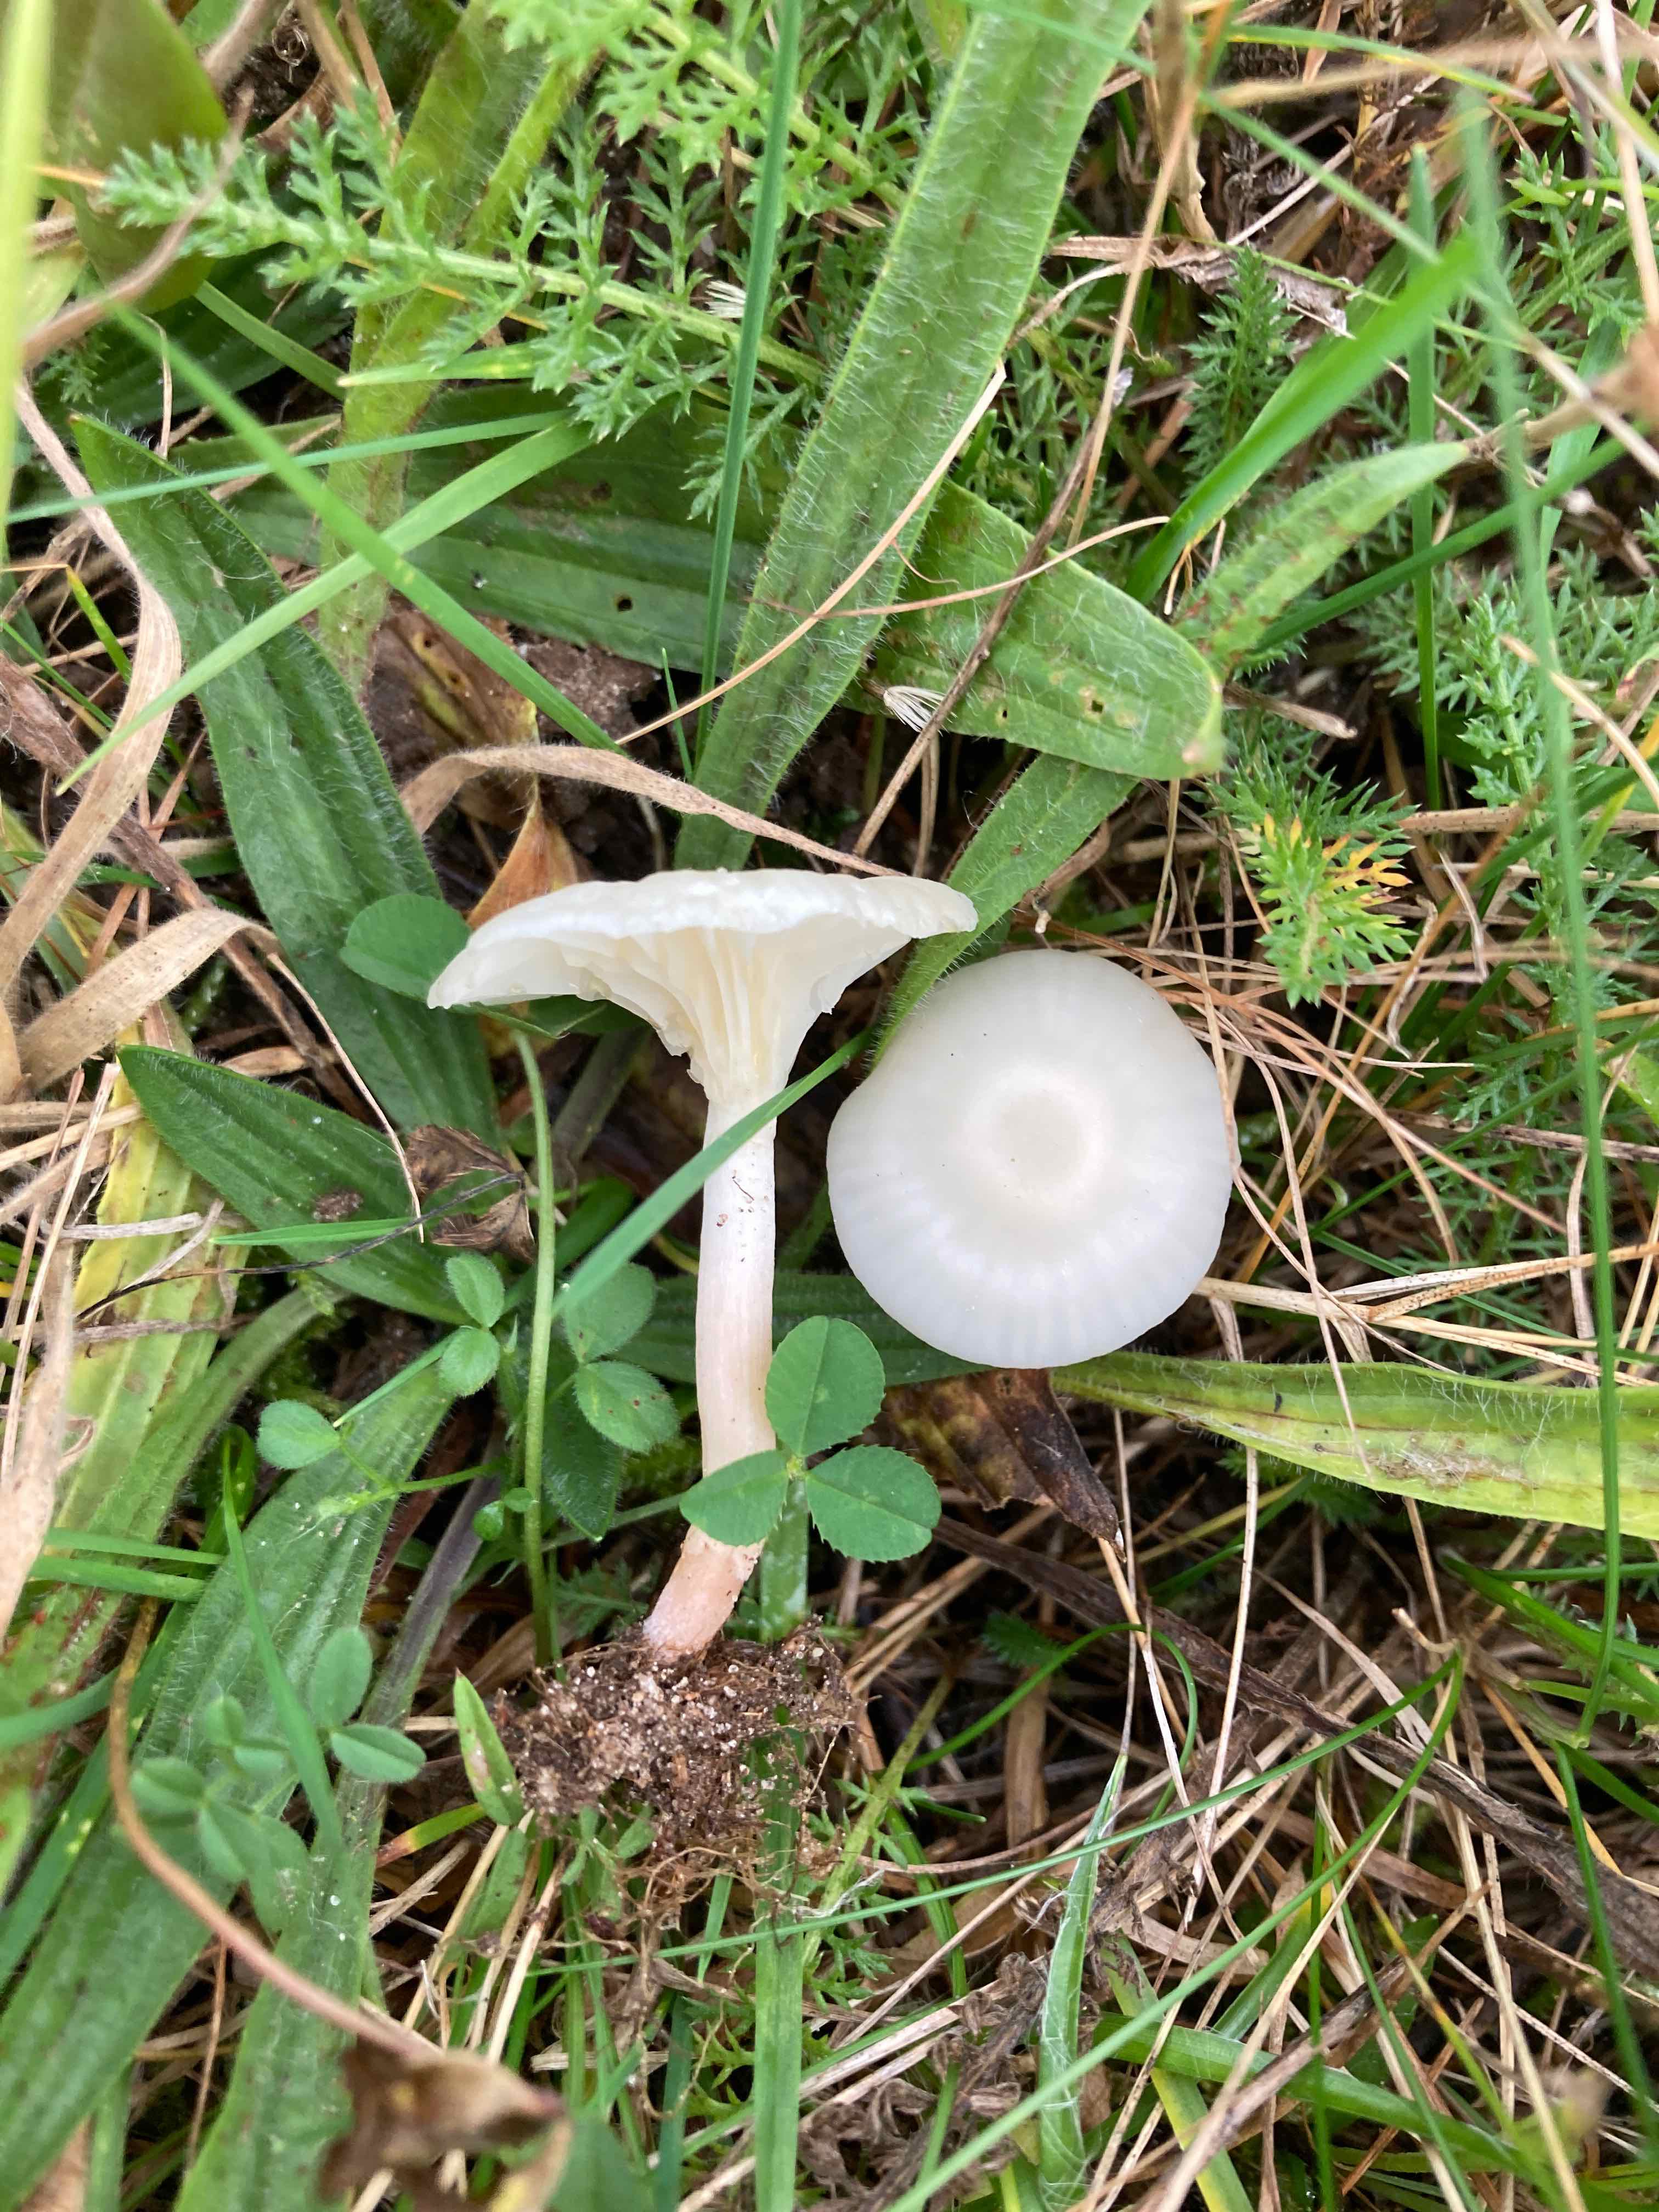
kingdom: Fungi
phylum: Basidiomycota
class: Agaricomycetes
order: Agaricales
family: Hygrophoraceae
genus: Cuphophyllus
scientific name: Cuphophyllus virgineus
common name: snehvid vokshat
